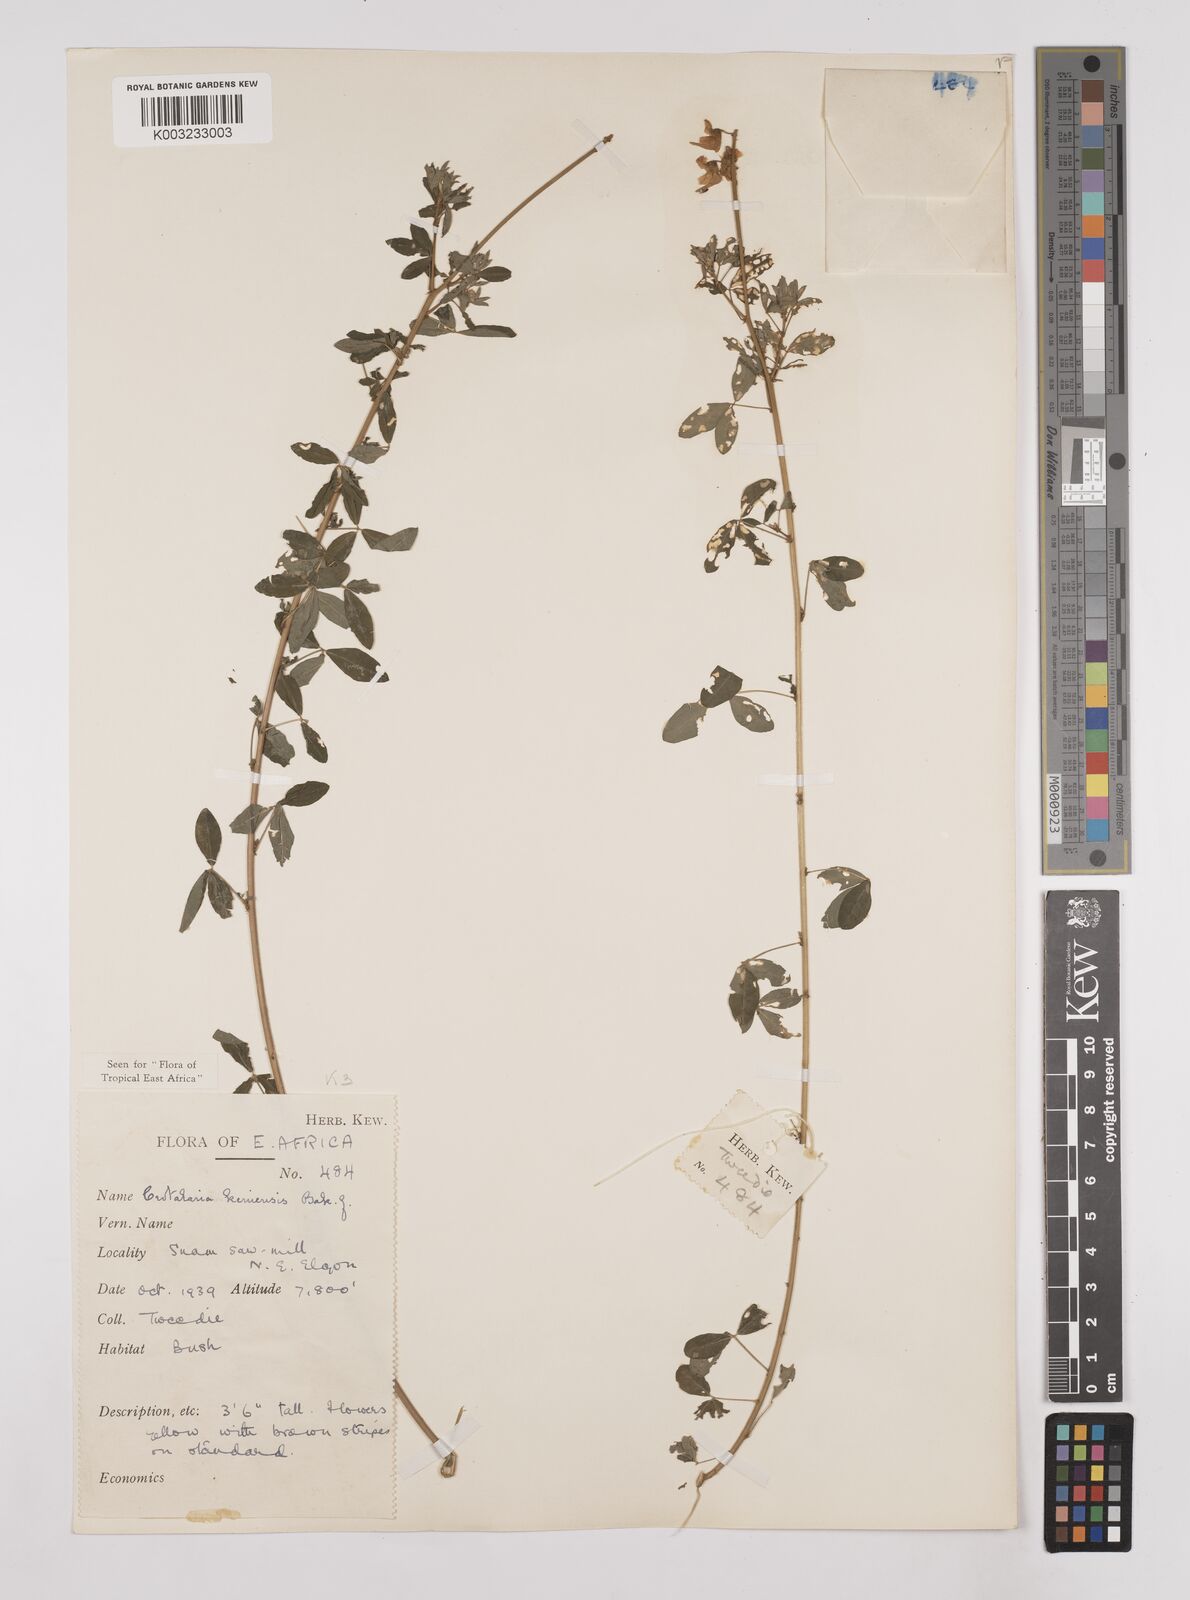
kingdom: Plantae
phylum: Tracheophyta
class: Magnoliopsida
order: Fabales
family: Fabaceae
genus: Crotalaria
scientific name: Crotalaria keniensis
